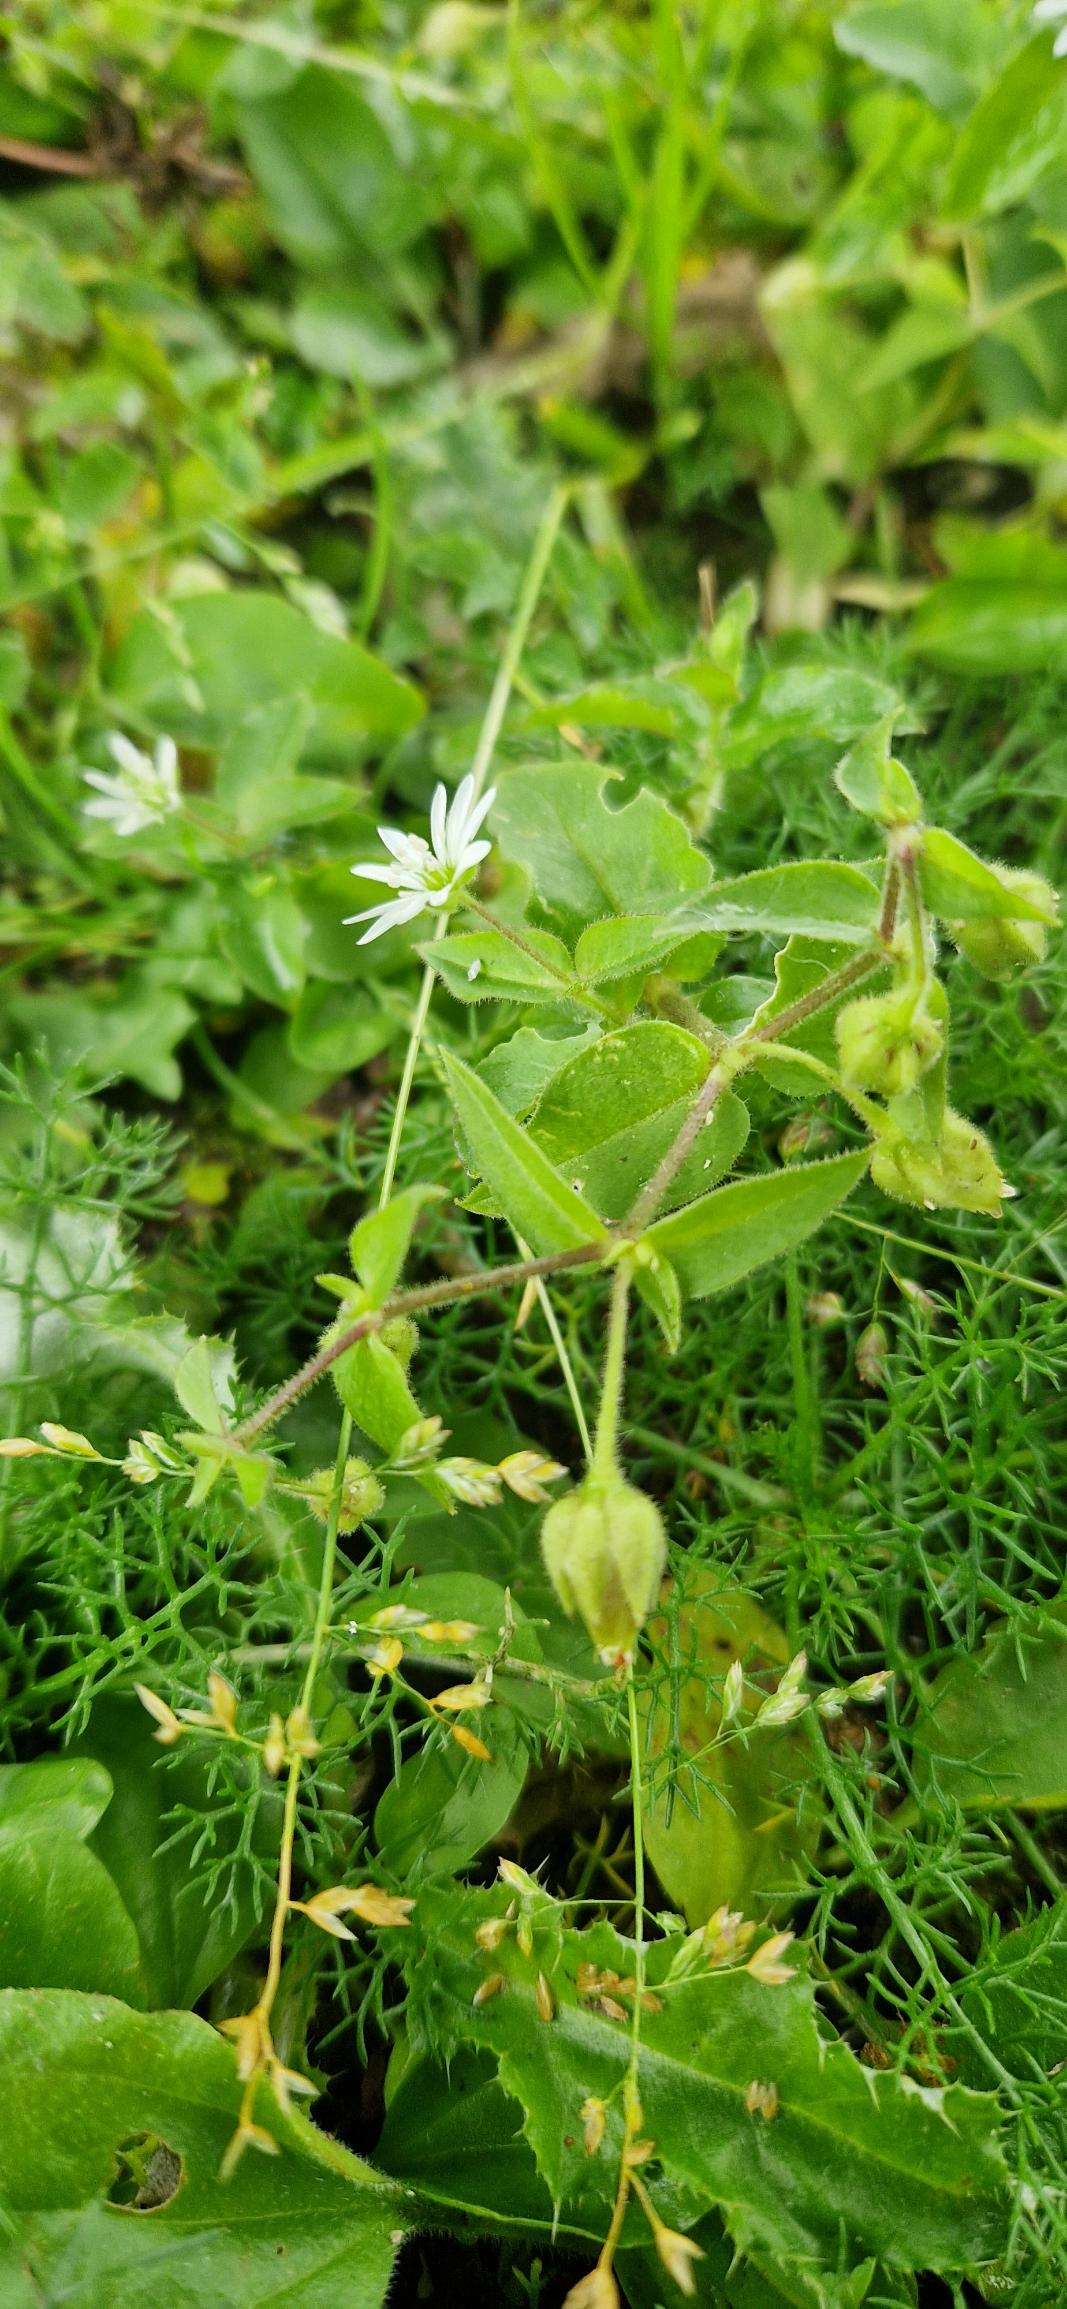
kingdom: Plantae
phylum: Tracheophyta
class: Magnoliopsida
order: Caryophyllales
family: Caryophyllaceae
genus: Stellaria
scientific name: Stellaria aquatica
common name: Kløvkrone
